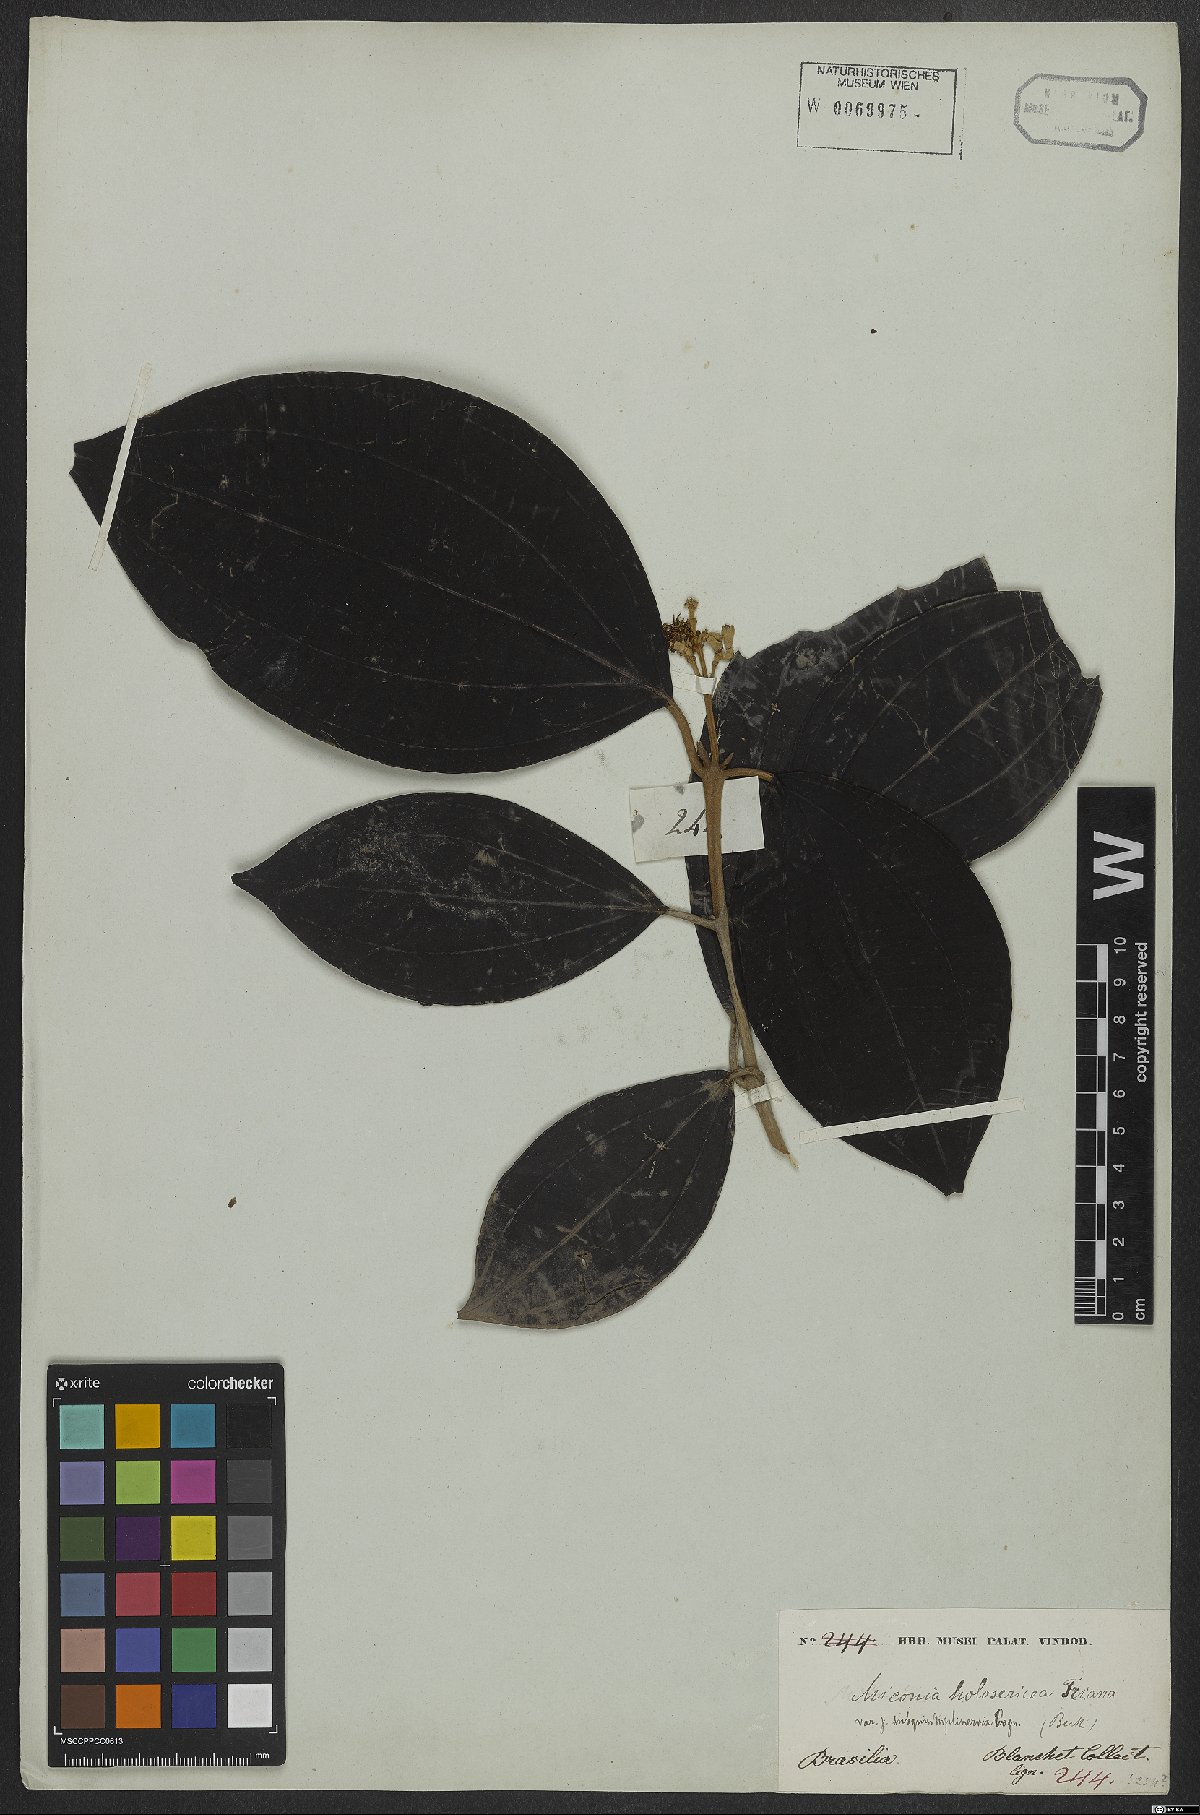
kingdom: Plantae
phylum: Tracheophyta
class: Magnoliopsida
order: Myrtales
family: Melastomataceae
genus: Miconia
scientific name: Miconia holosericea
